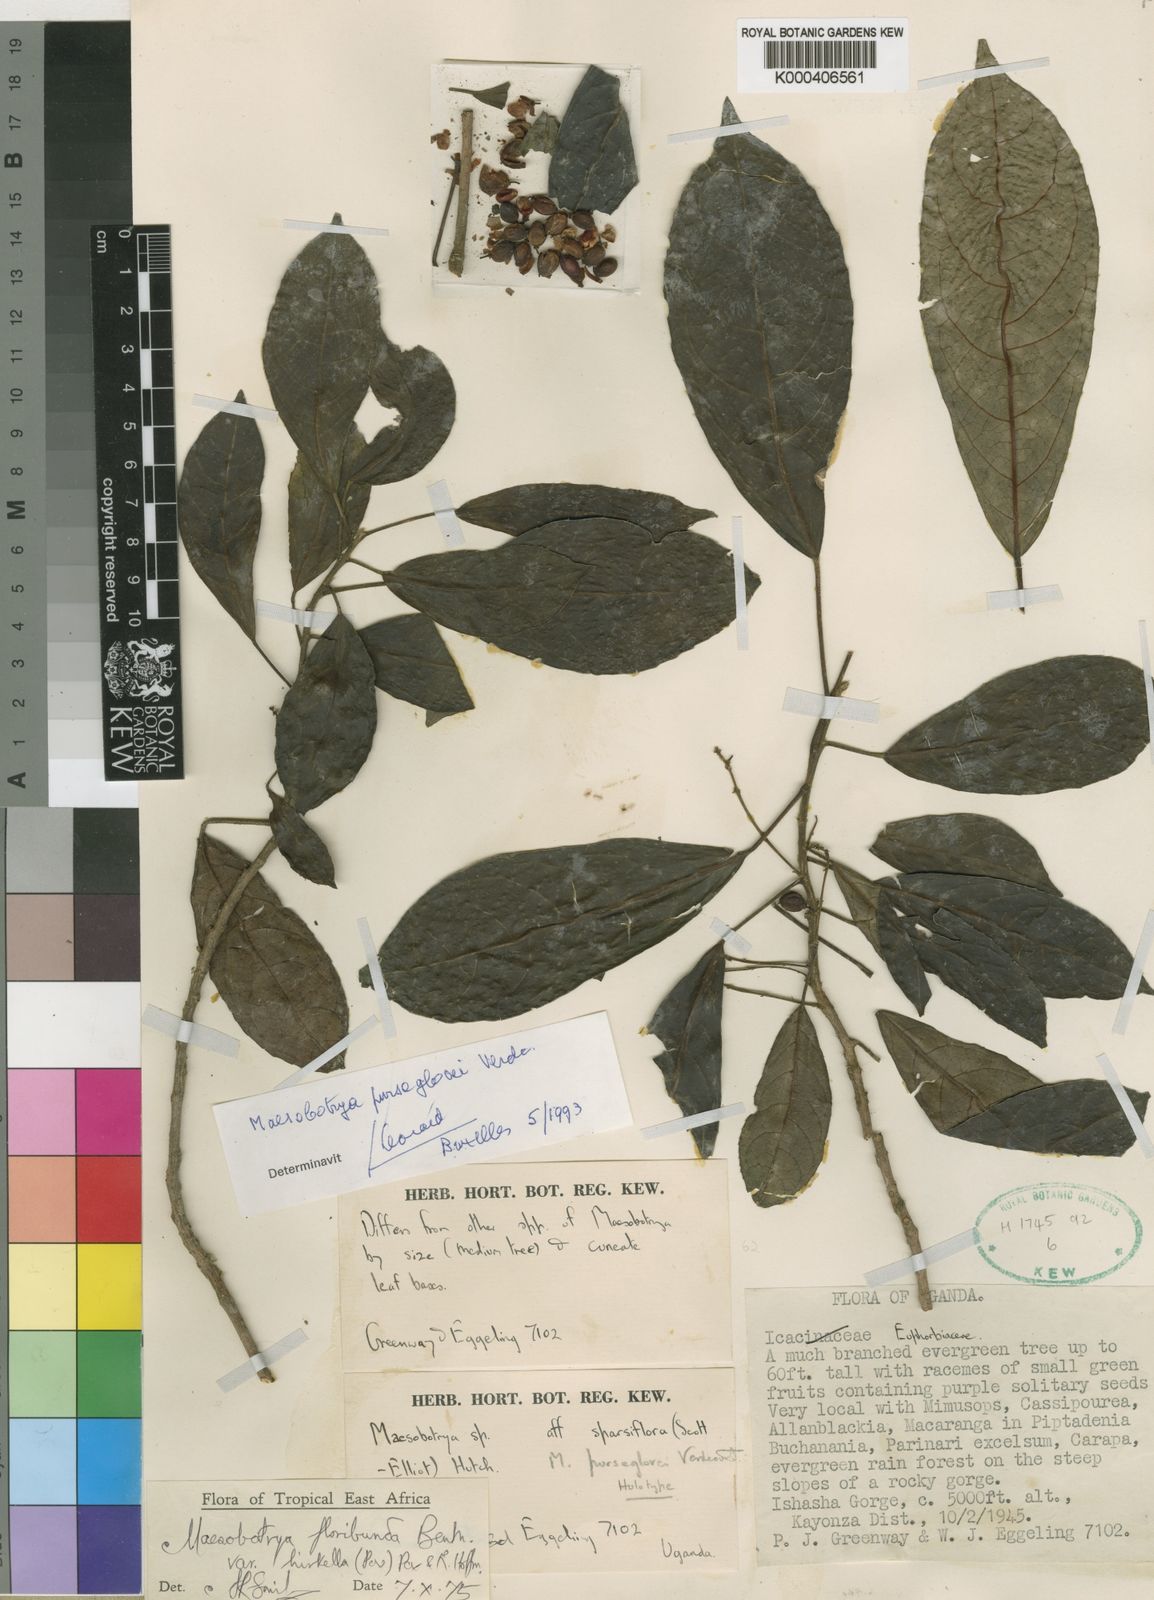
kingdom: Plantae
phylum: Tracheophyta
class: Magnoliopsida
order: Malpighiales
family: Phyllanthaceae
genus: Maesobotrya
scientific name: Maesobotrya purseglovei
